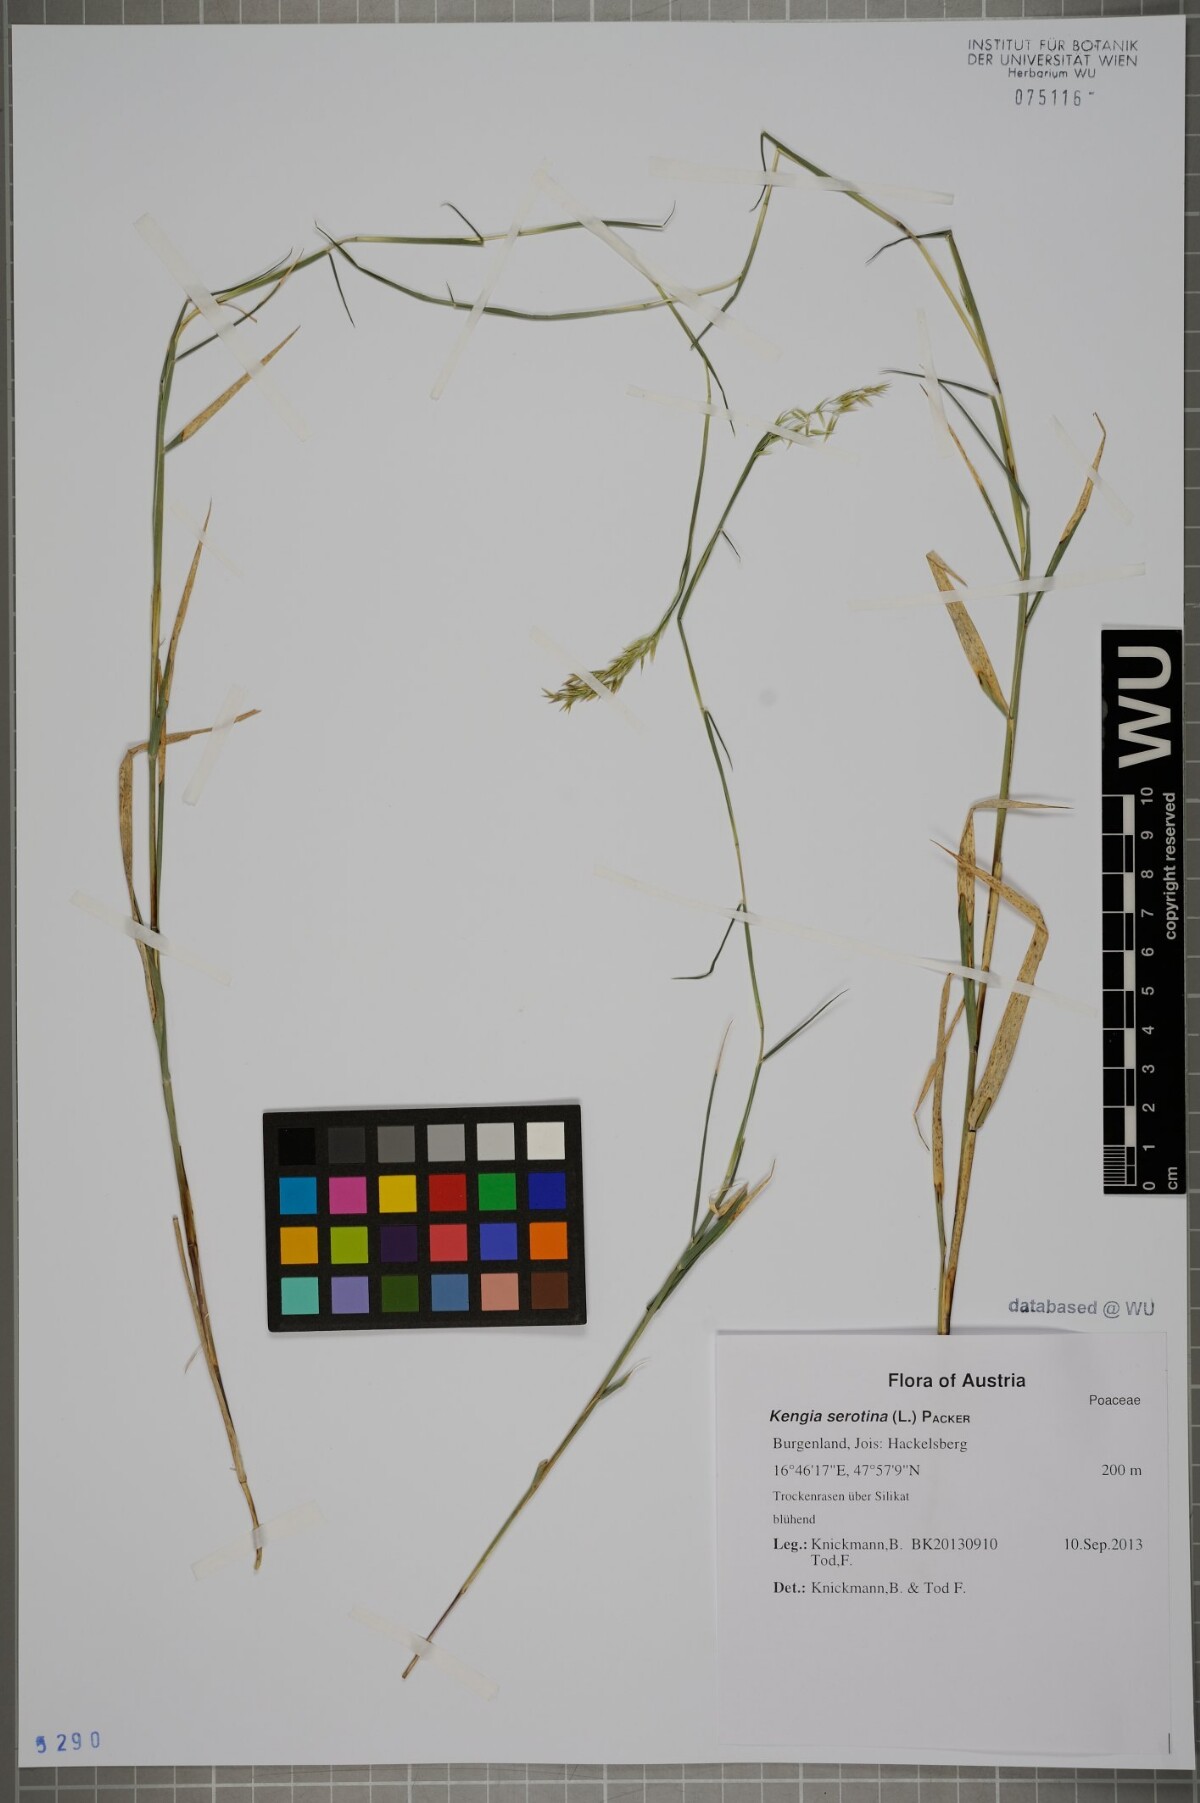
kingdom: Plantae
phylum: Tracheophyta
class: Liliopsida
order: Poales
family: Poaceae
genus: Cleistogenes
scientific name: Cleistogenes serotina
